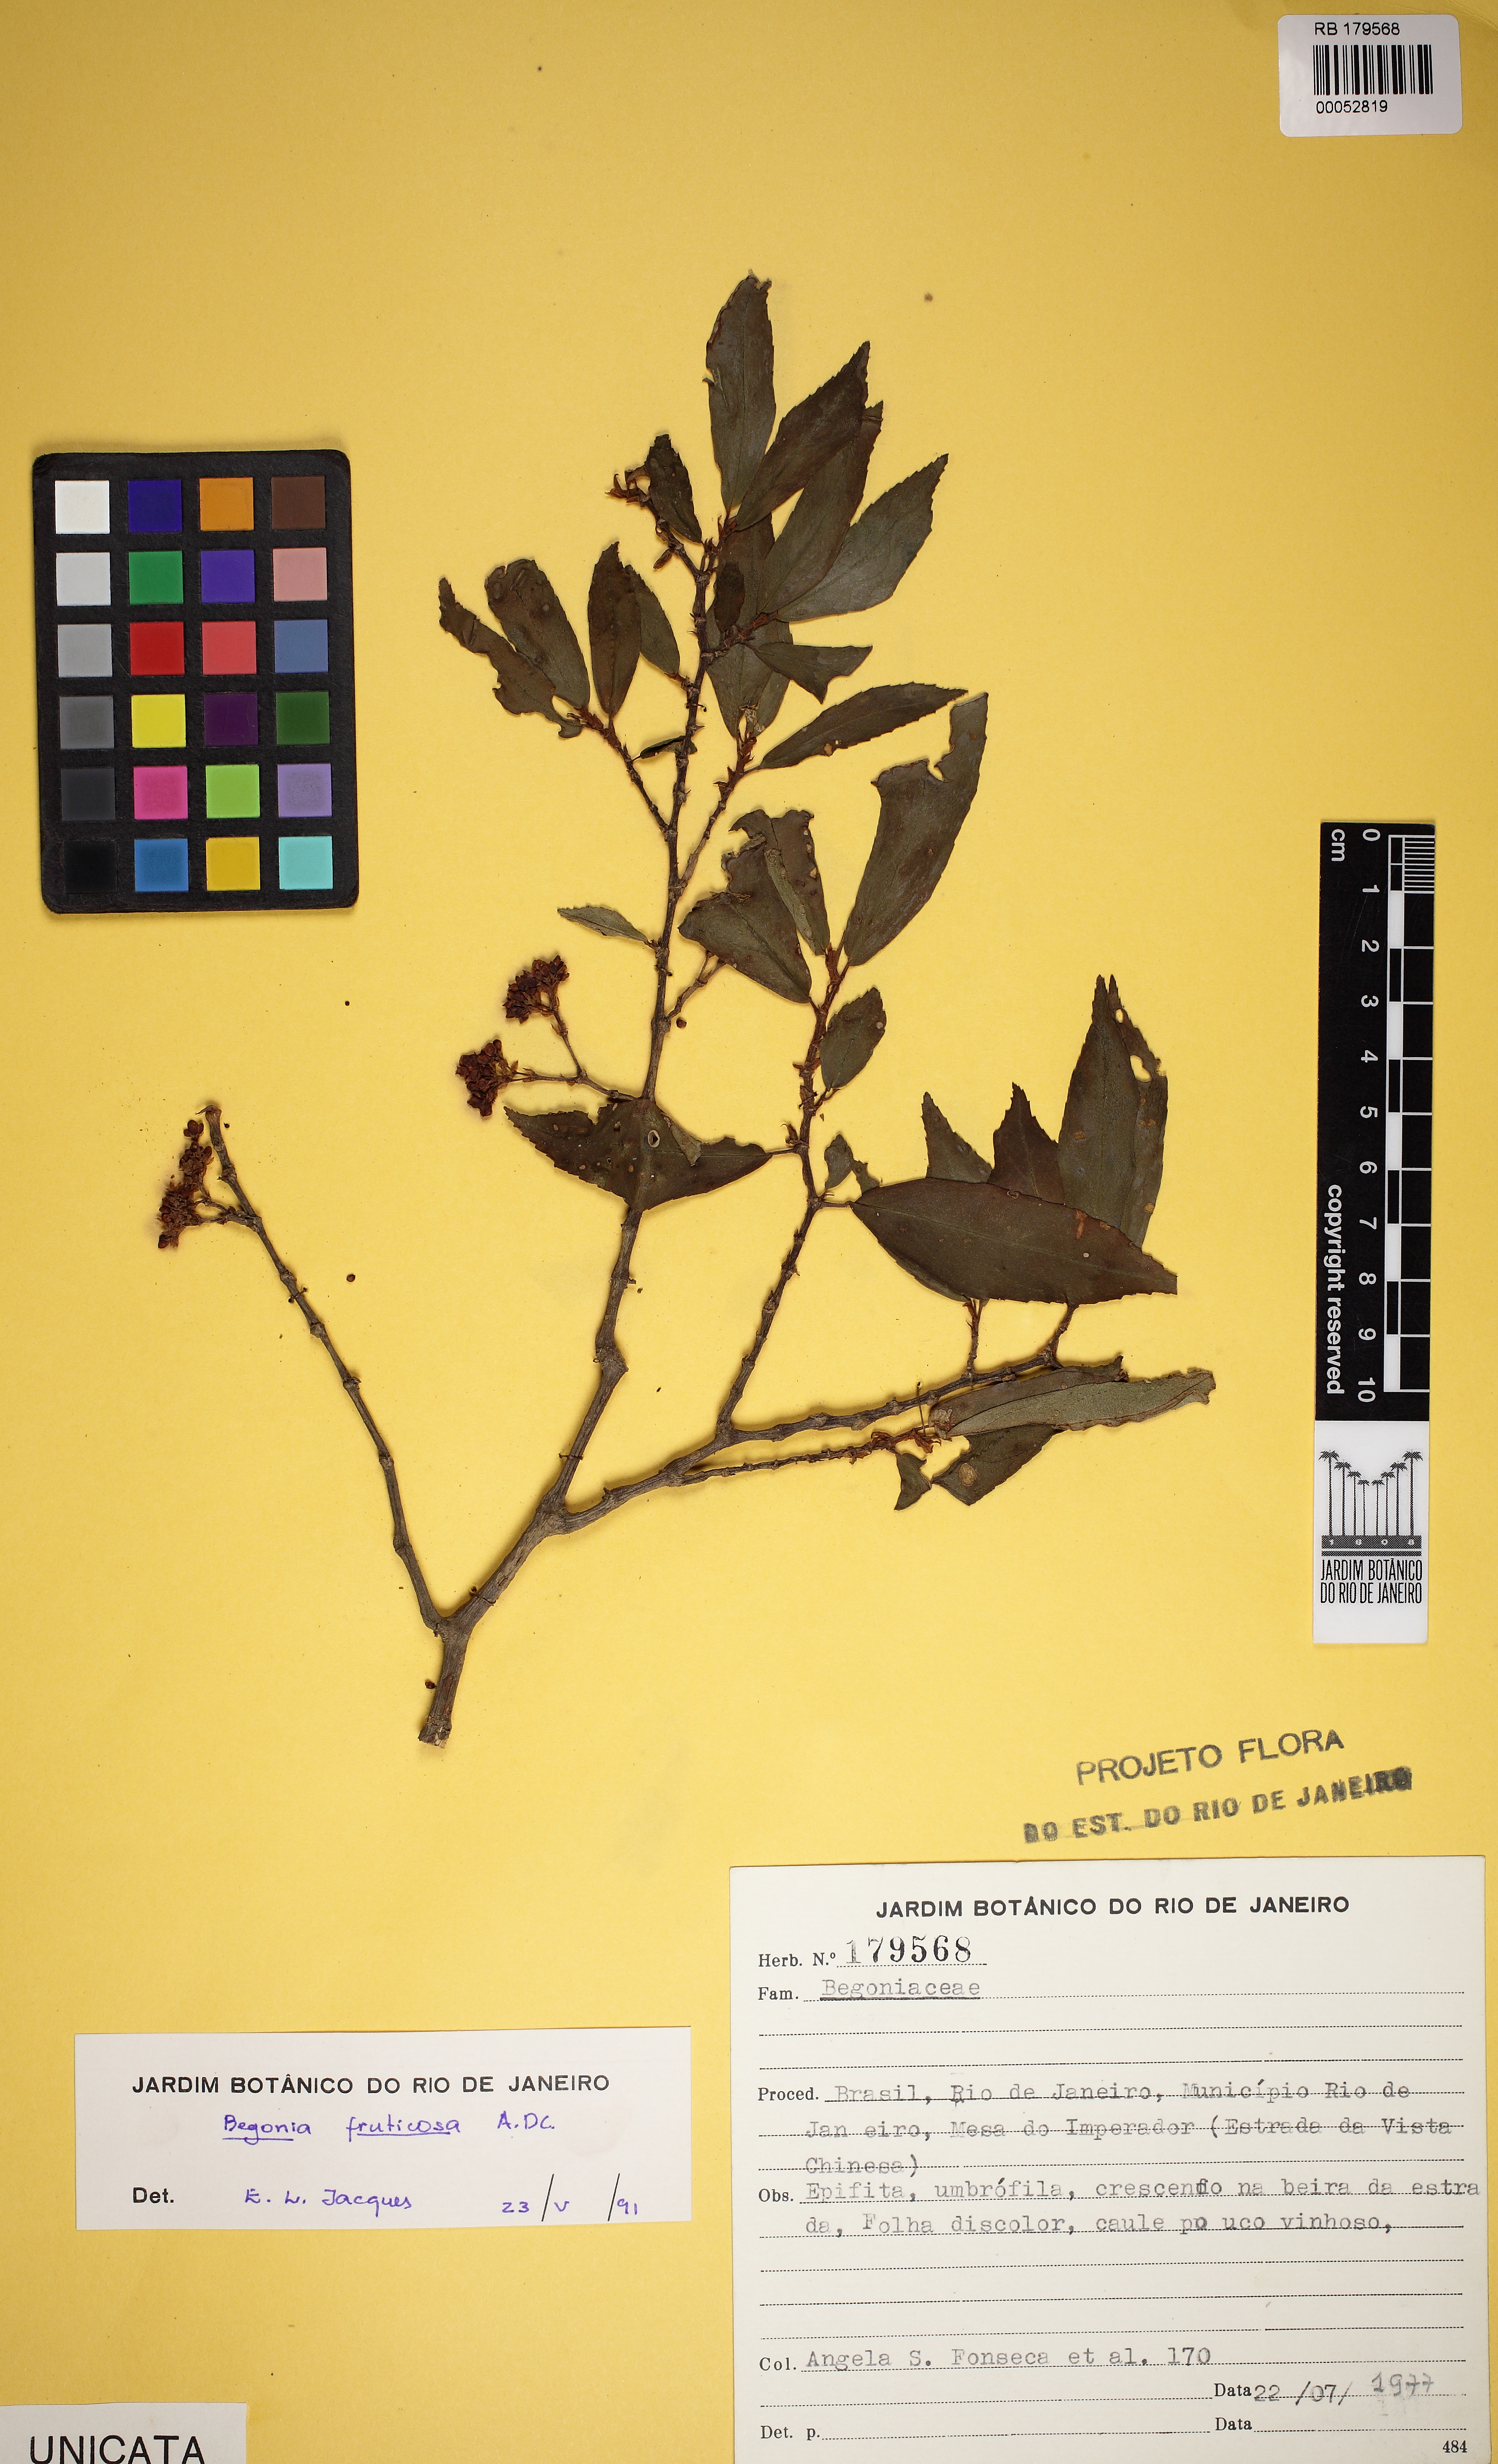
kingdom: Plantae
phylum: Tracheophyta
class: Magnoliopsida
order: Cucurbitales
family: Begoniaceae
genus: Begonia
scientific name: Begonia fruticosa
